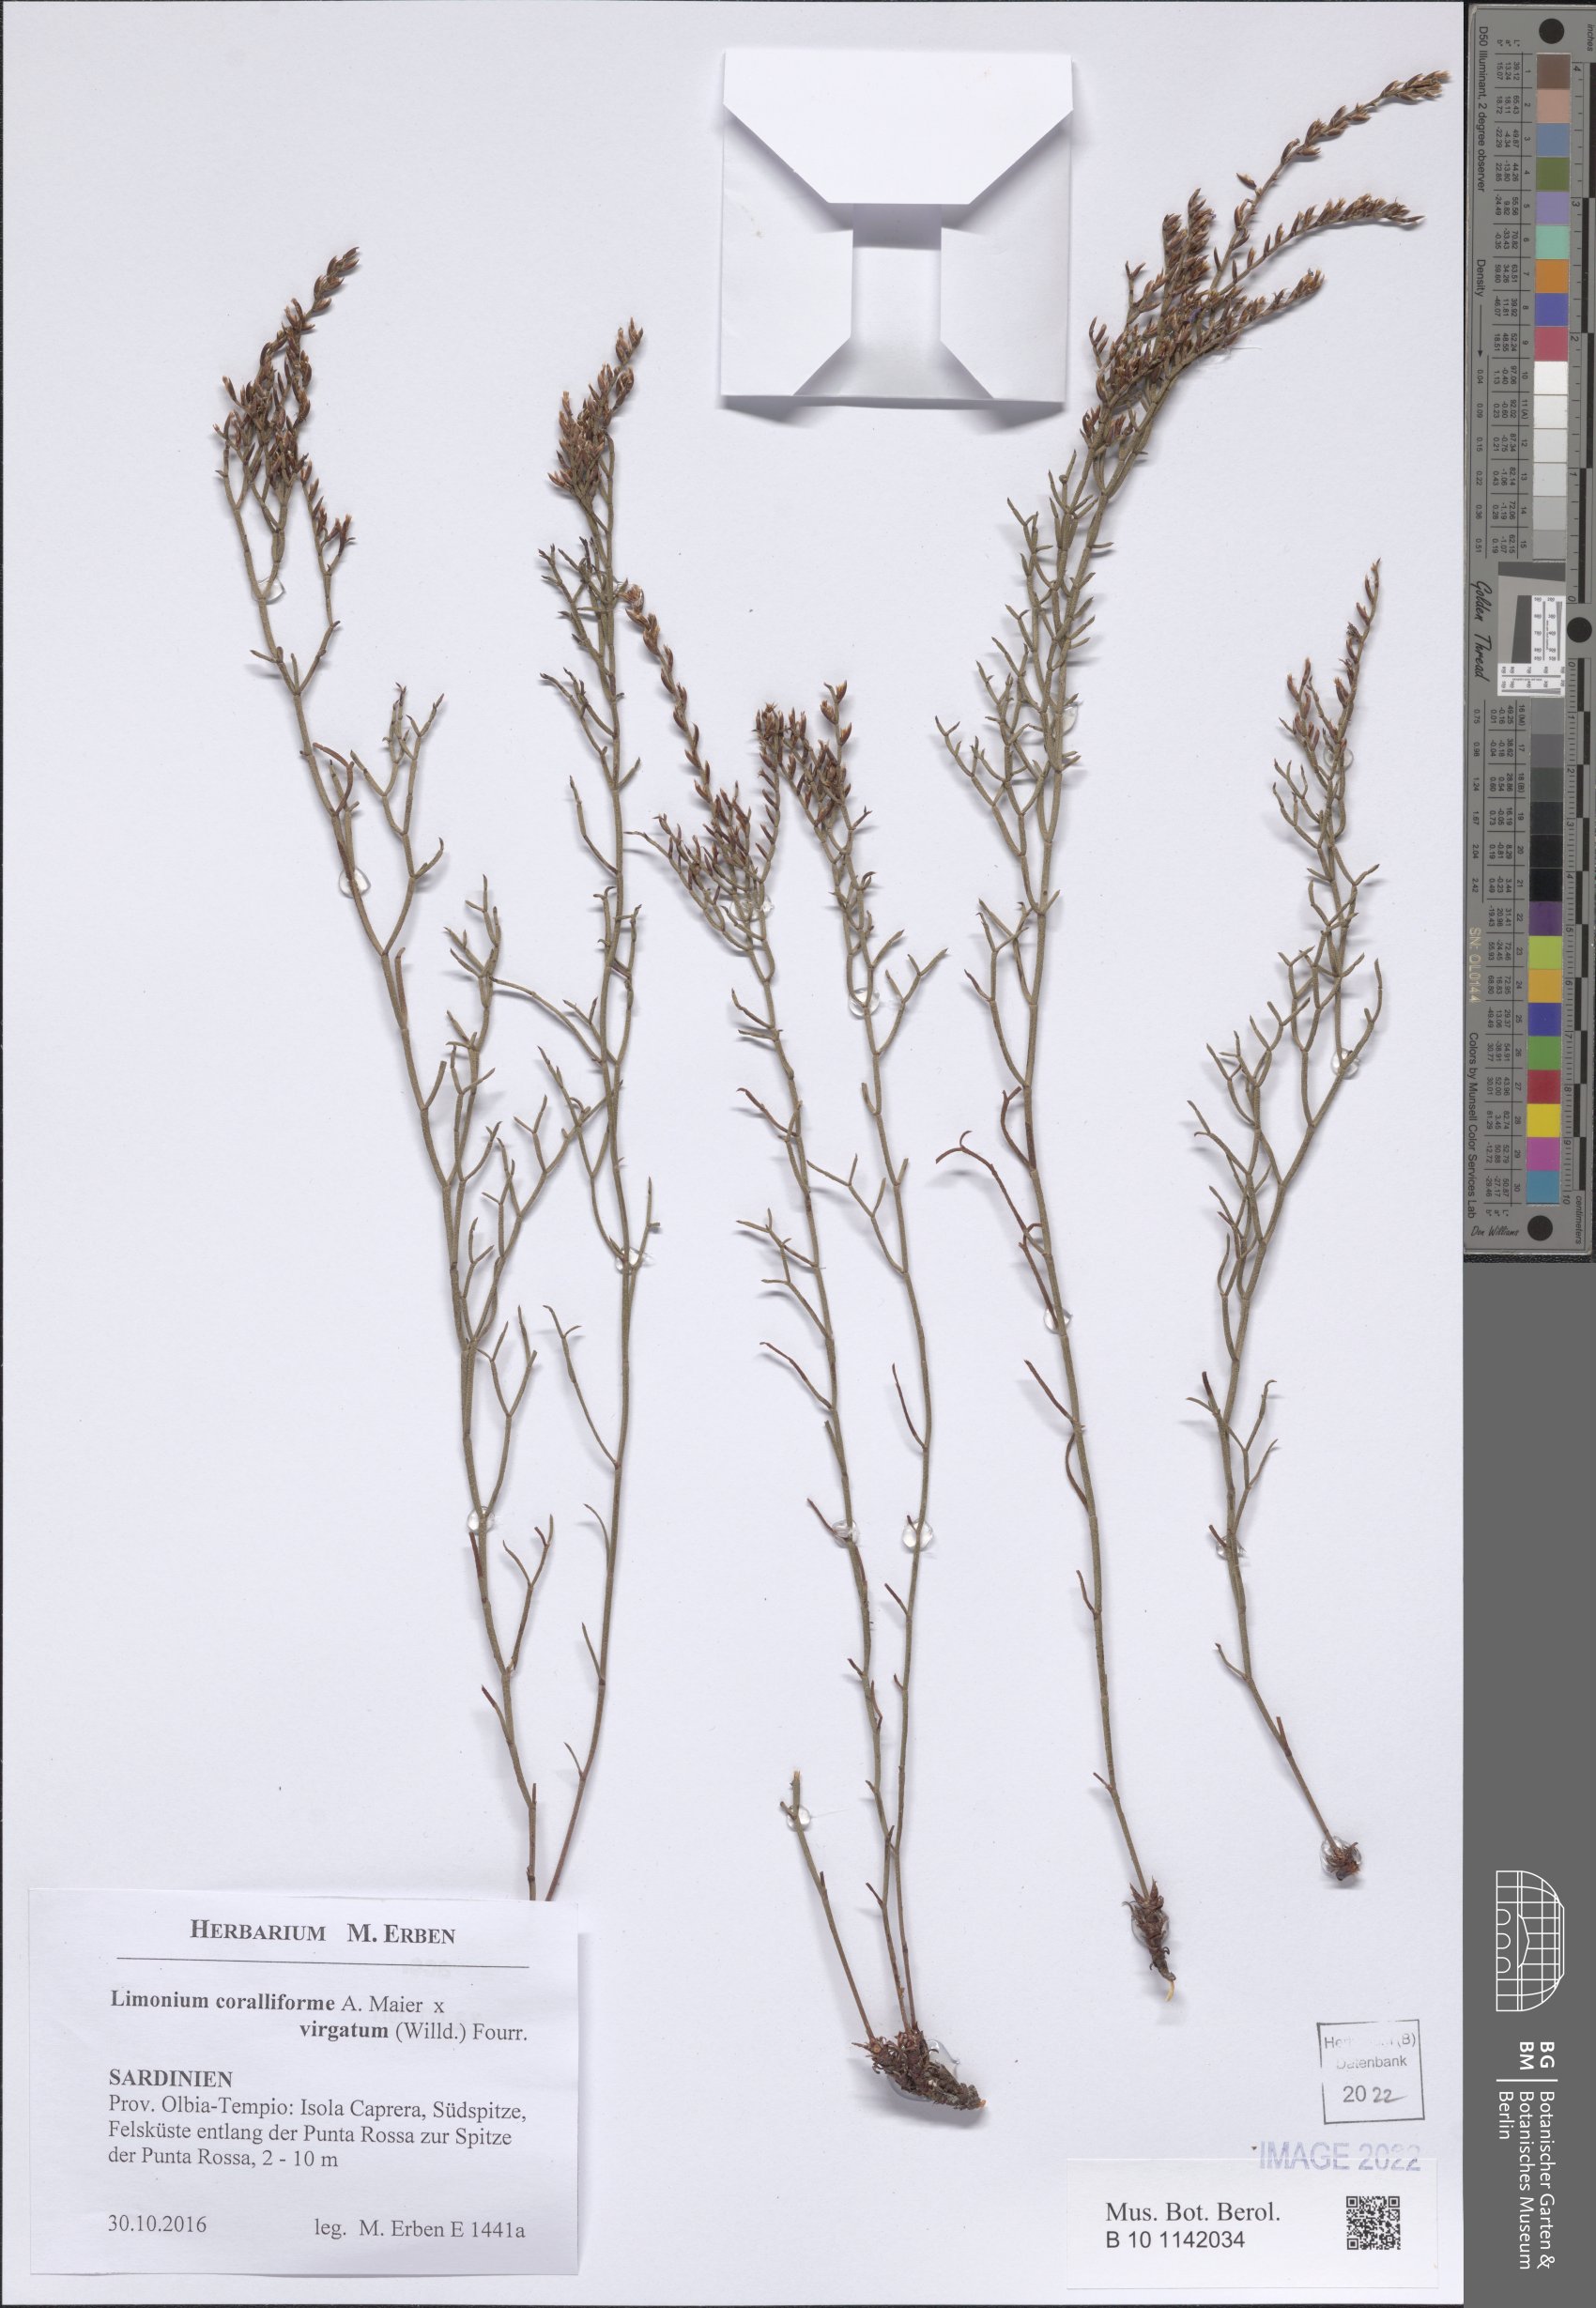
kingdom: Plantae
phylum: Tracheophyta
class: Magnoliopsida
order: Caryophyllales
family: Plumbaginaceae
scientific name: Plumbaginaceae
